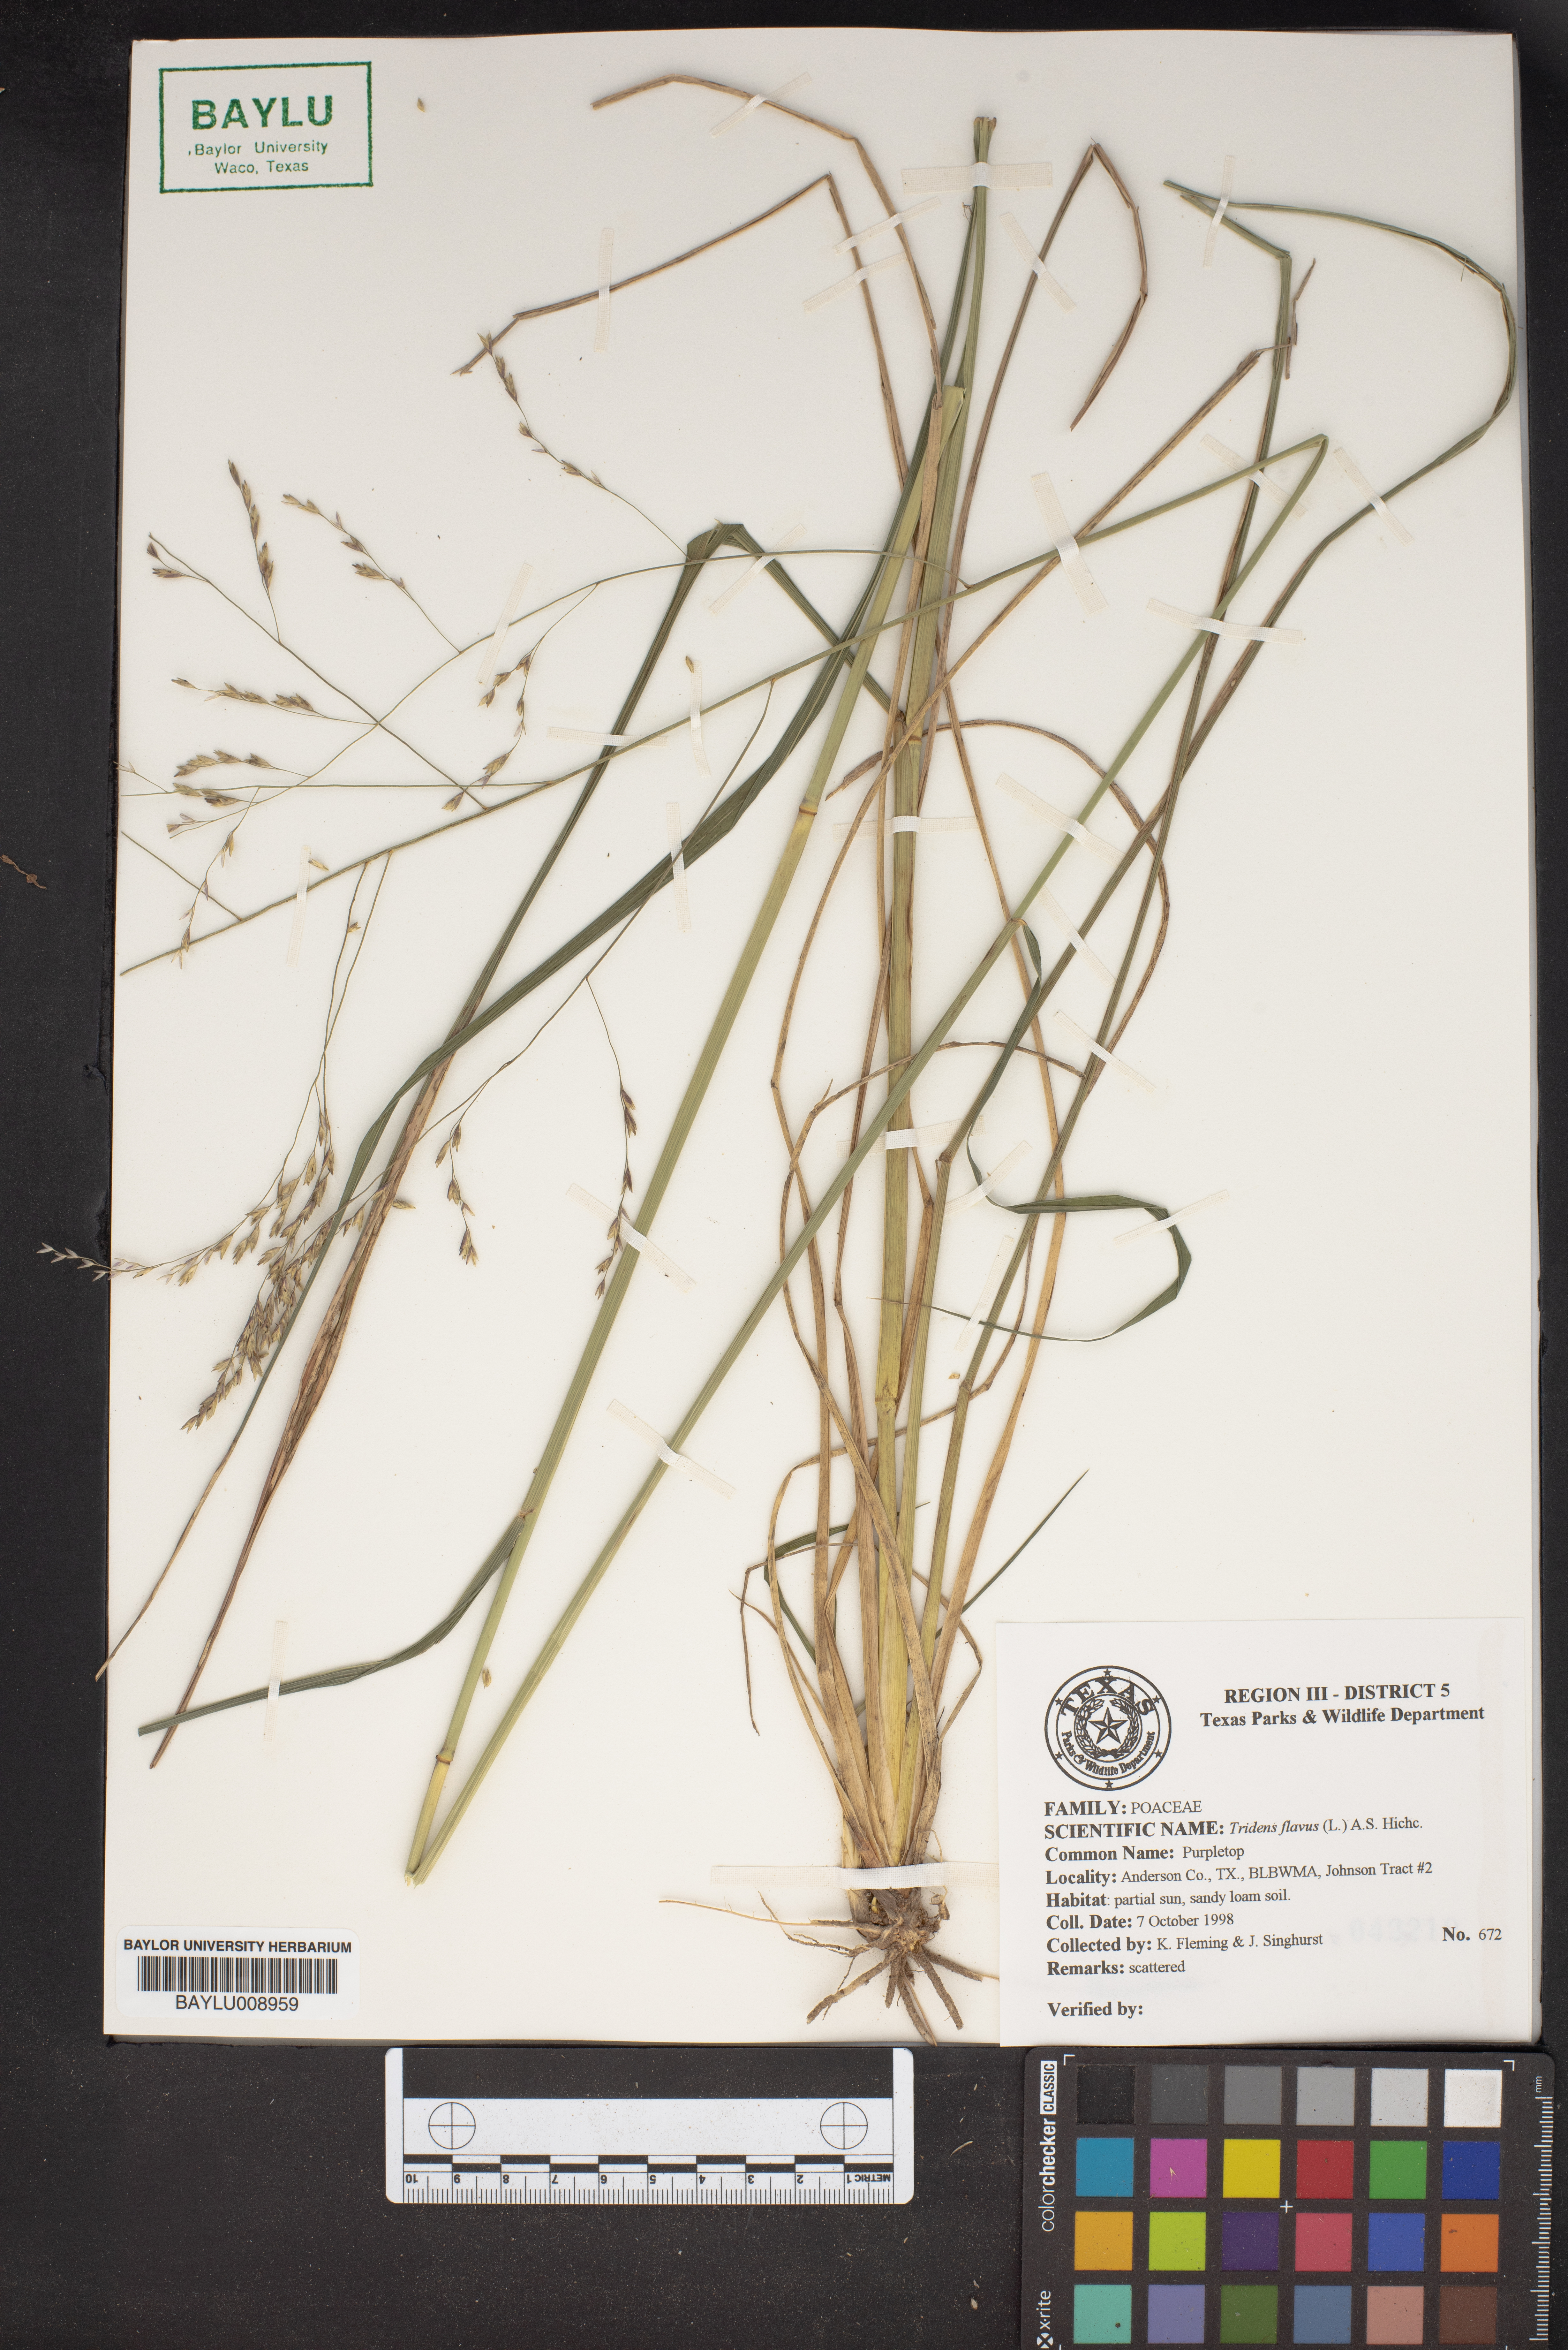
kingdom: Plantae
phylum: Tracheophyta
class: Liliopsida
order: Poales
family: Poaceae
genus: Tridens
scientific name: Tridens flavus
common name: Purpletop
